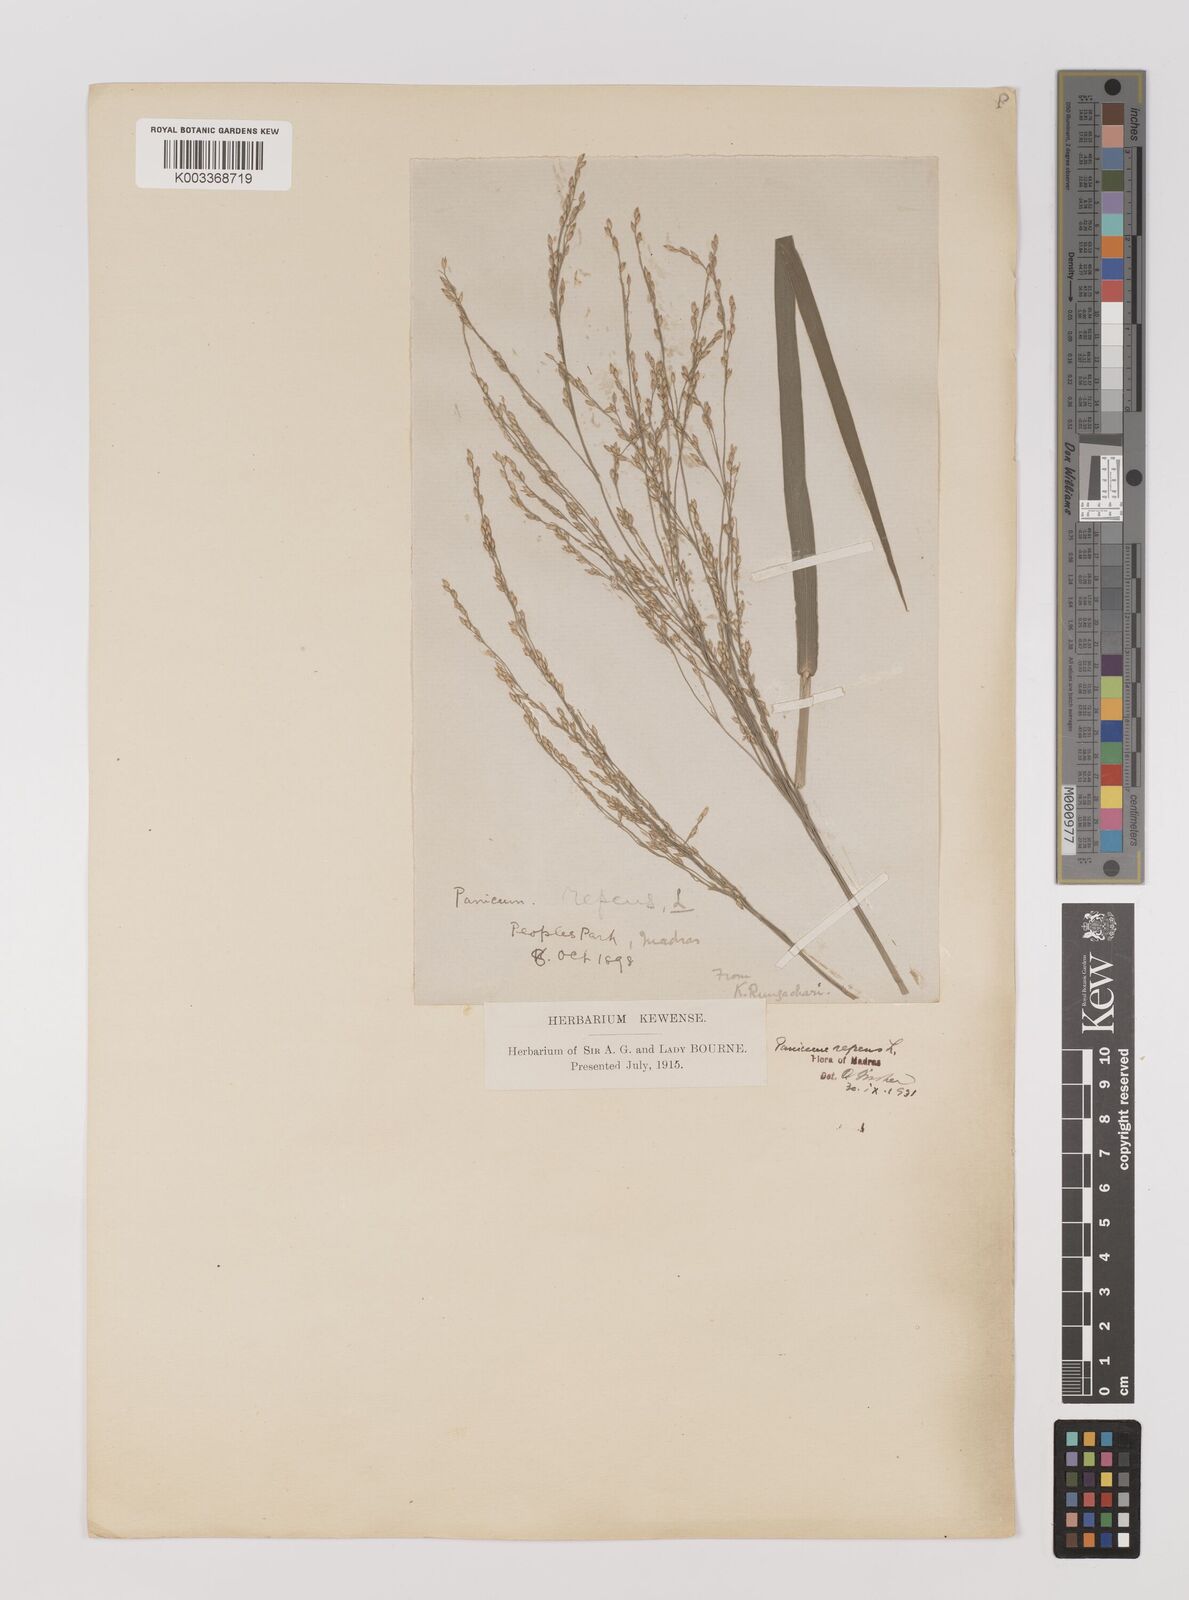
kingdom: Plantae
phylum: Tracheophyta
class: Liliopsida
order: Poales
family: Poaceae
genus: Panicum
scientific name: Panicum repens
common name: Torpedo grass
